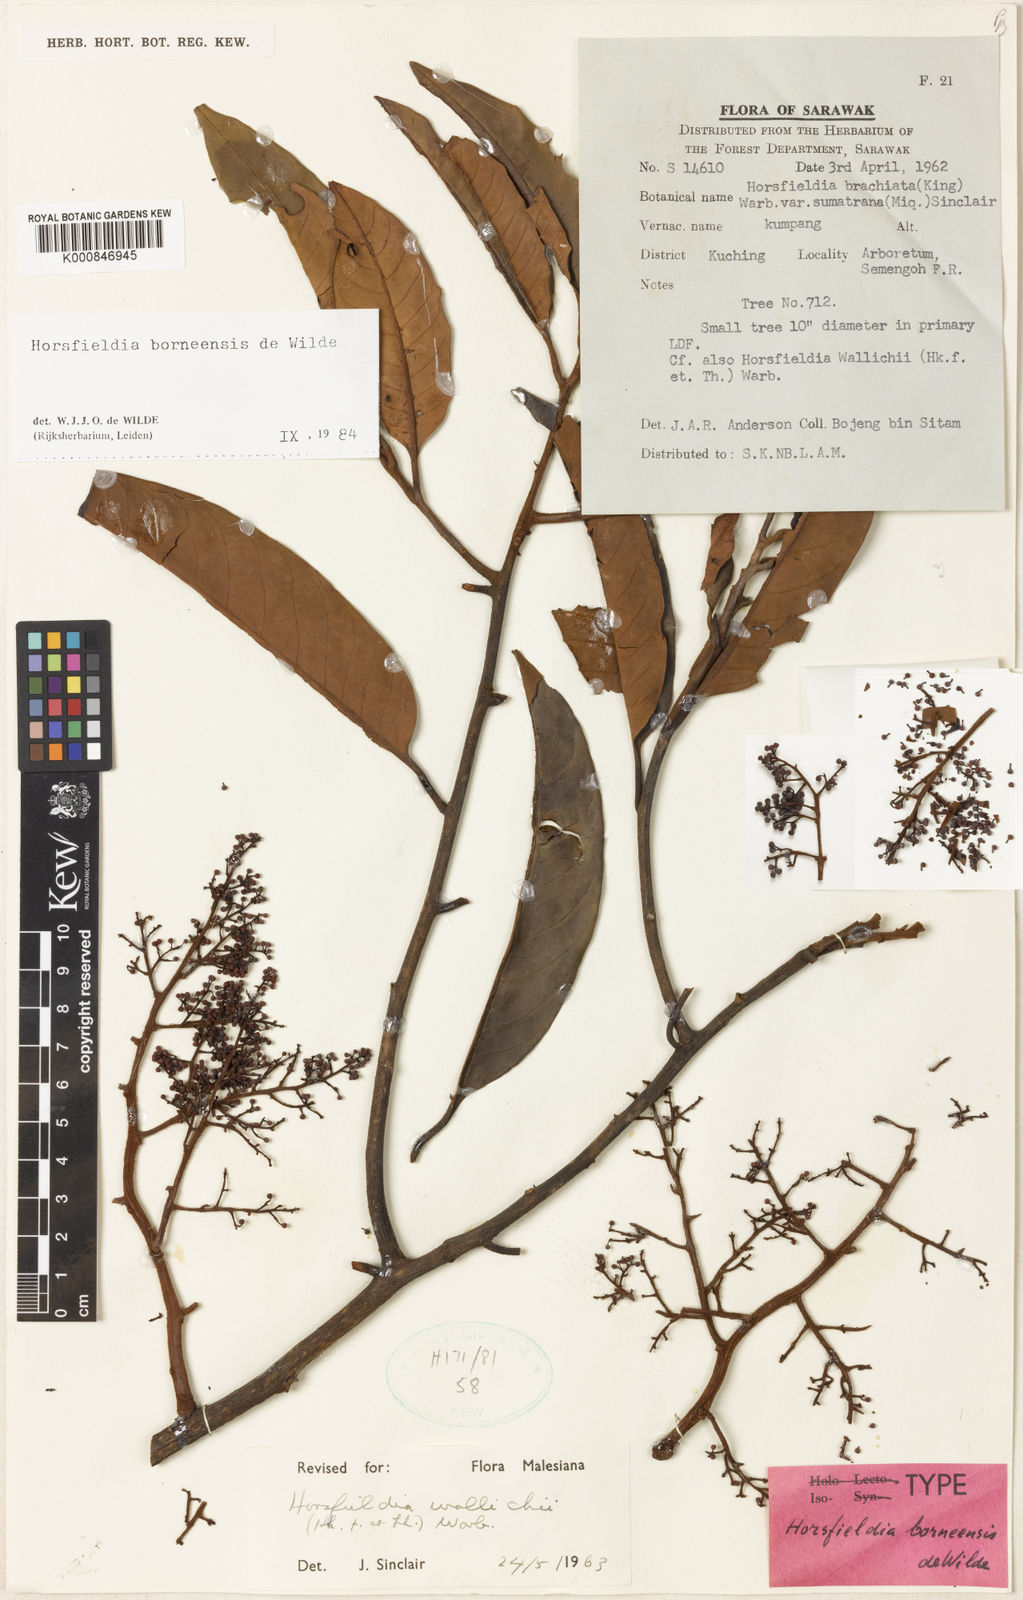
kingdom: Plantae
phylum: Tracheophyta
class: Magnoliopsida
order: Magnoliales
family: Myristicaceae
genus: Horsfieldia
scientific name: Horsfieldia borneensis
